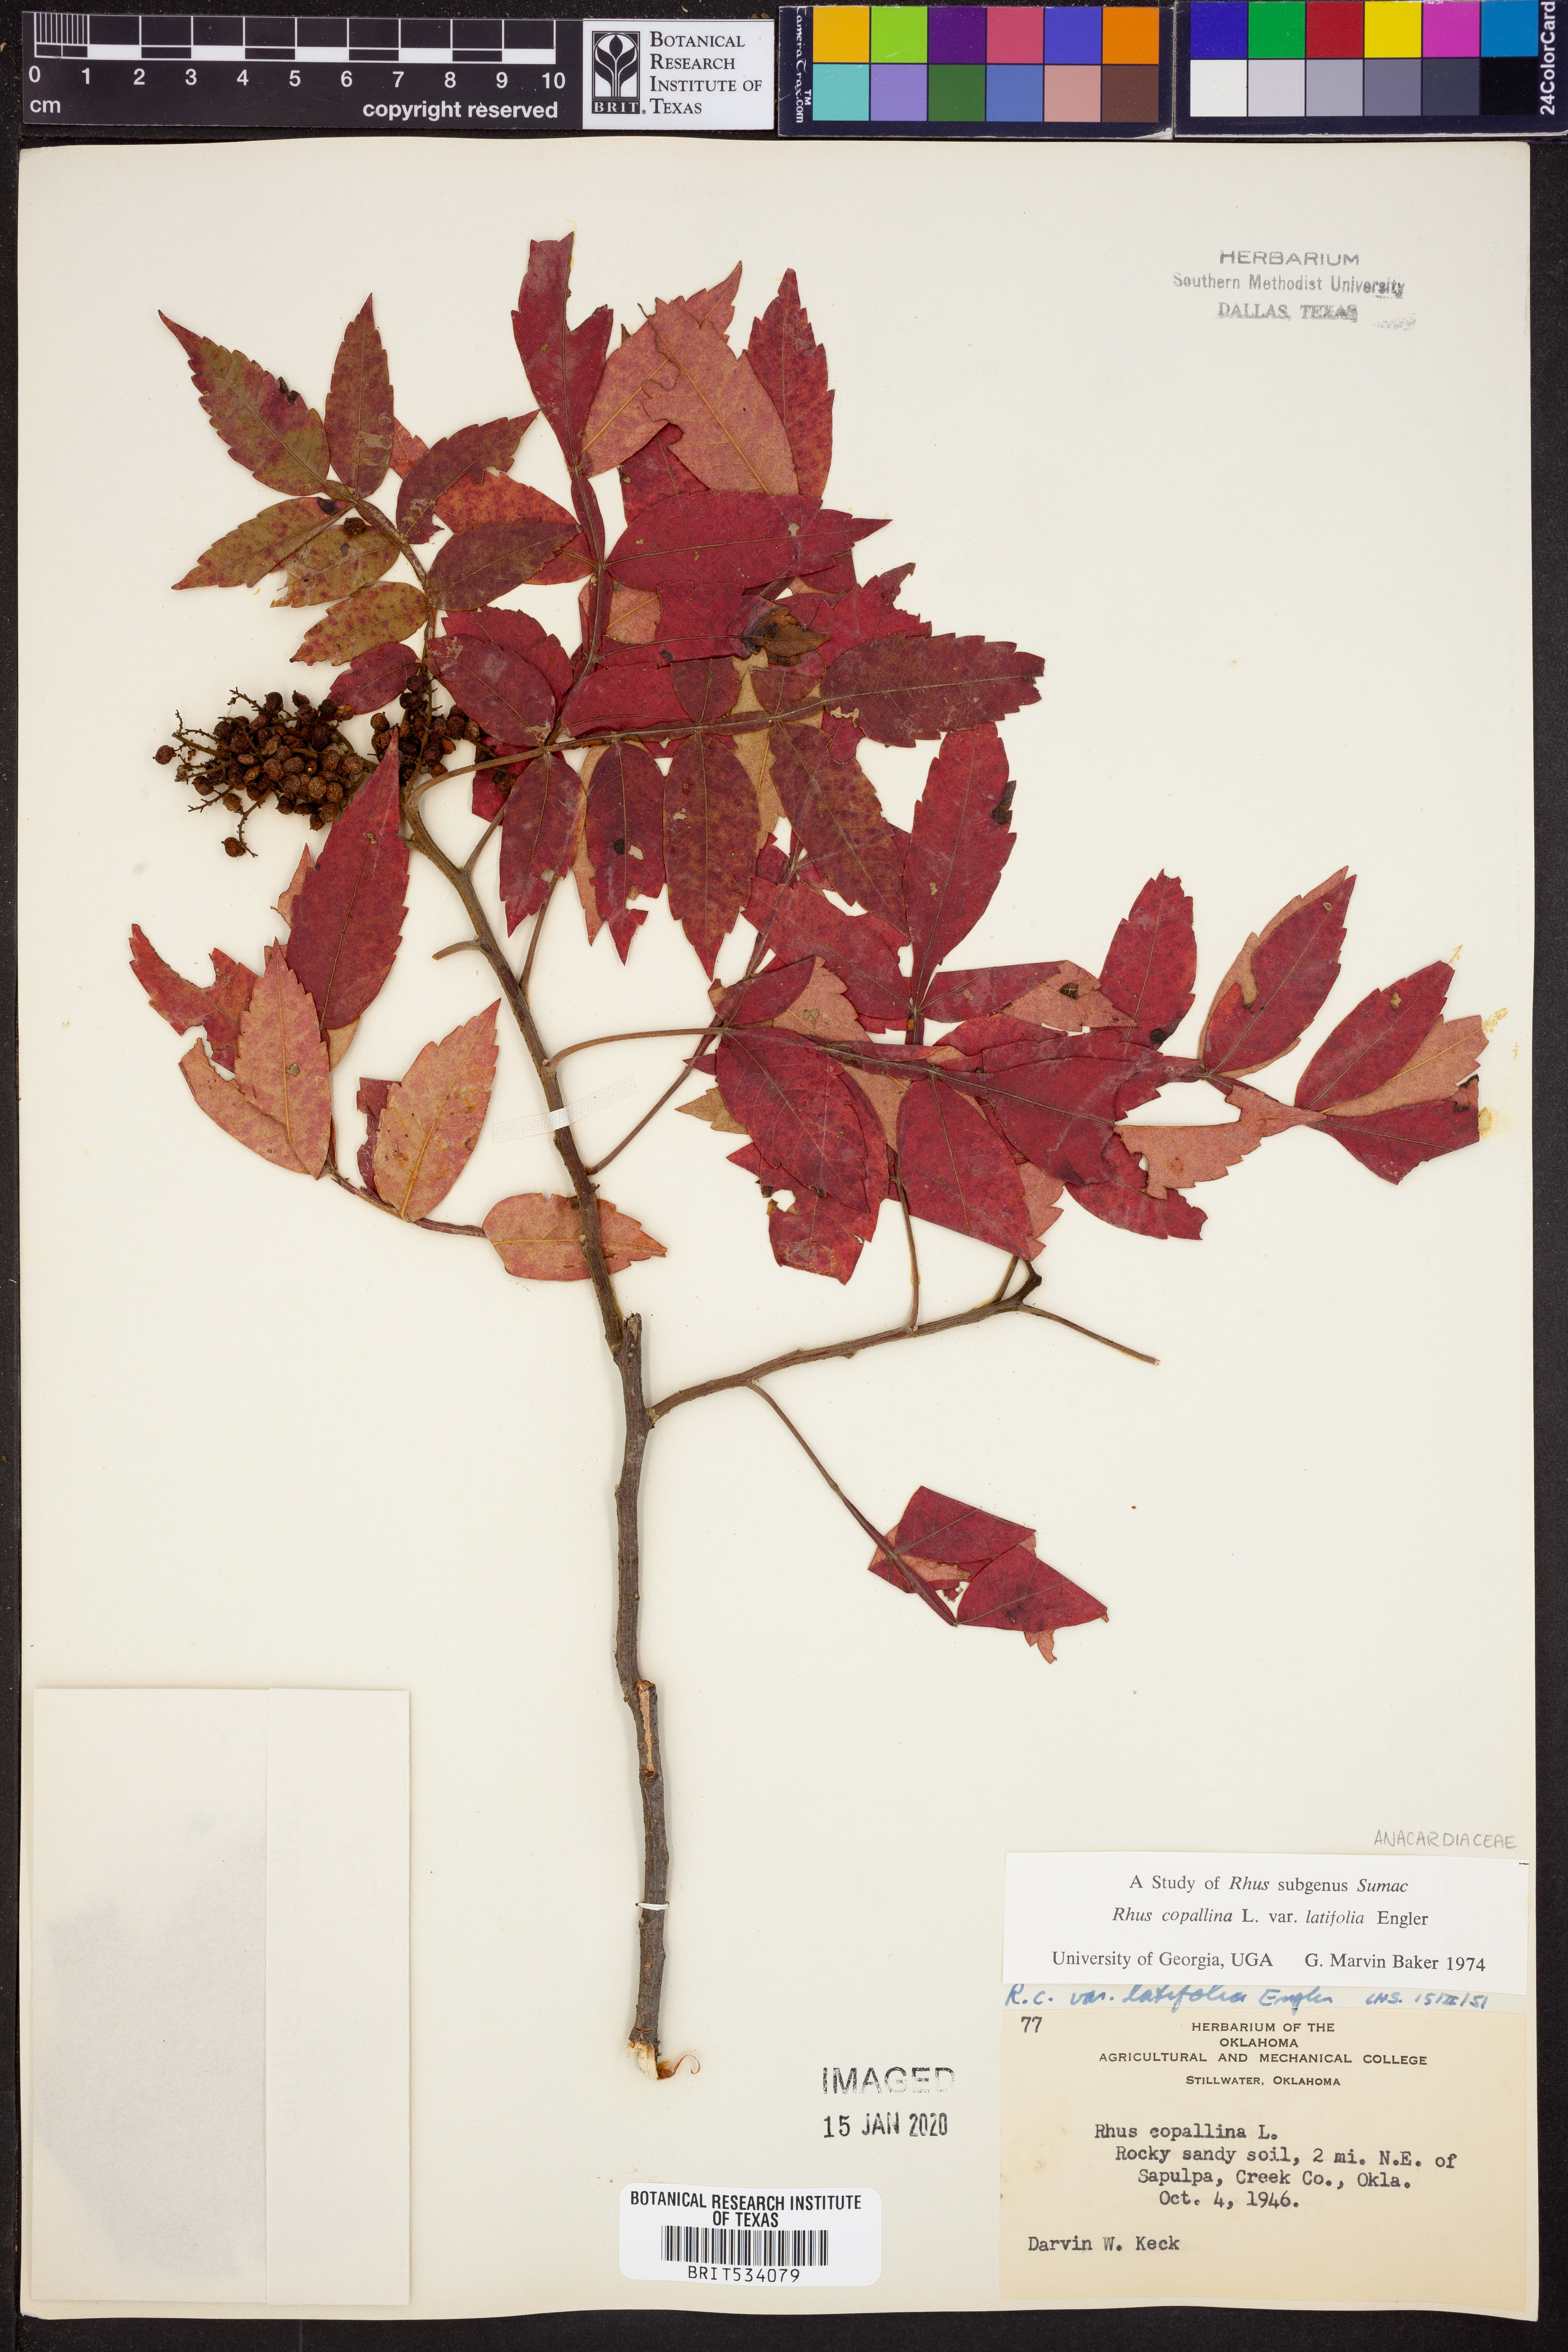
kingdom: Plantae
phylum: Tracheophyta
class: Magnoliopsida
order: Sapindales
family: Anacardiaceae
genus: Rhus
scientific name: Rhus copallina
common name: Shining sumac
